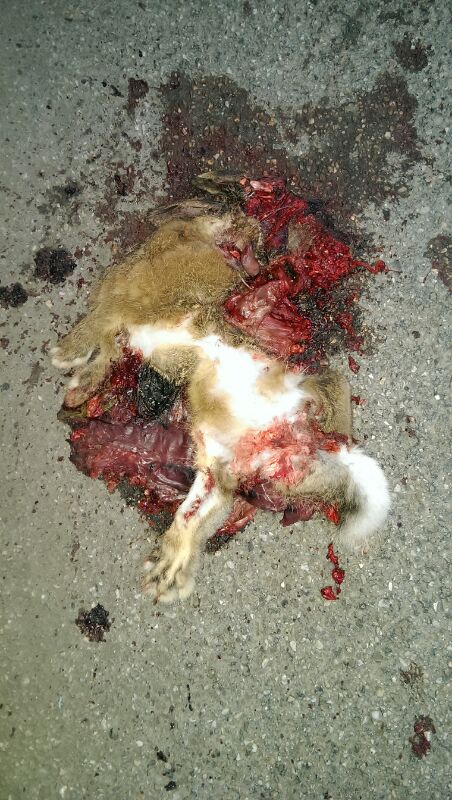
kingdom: Animalia
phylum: Chordata
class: Mammalia
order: Lagomorpha
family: Leporidae
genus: Oryctolagus
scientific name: Oryctolagus cuniculus
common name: European rabbit
